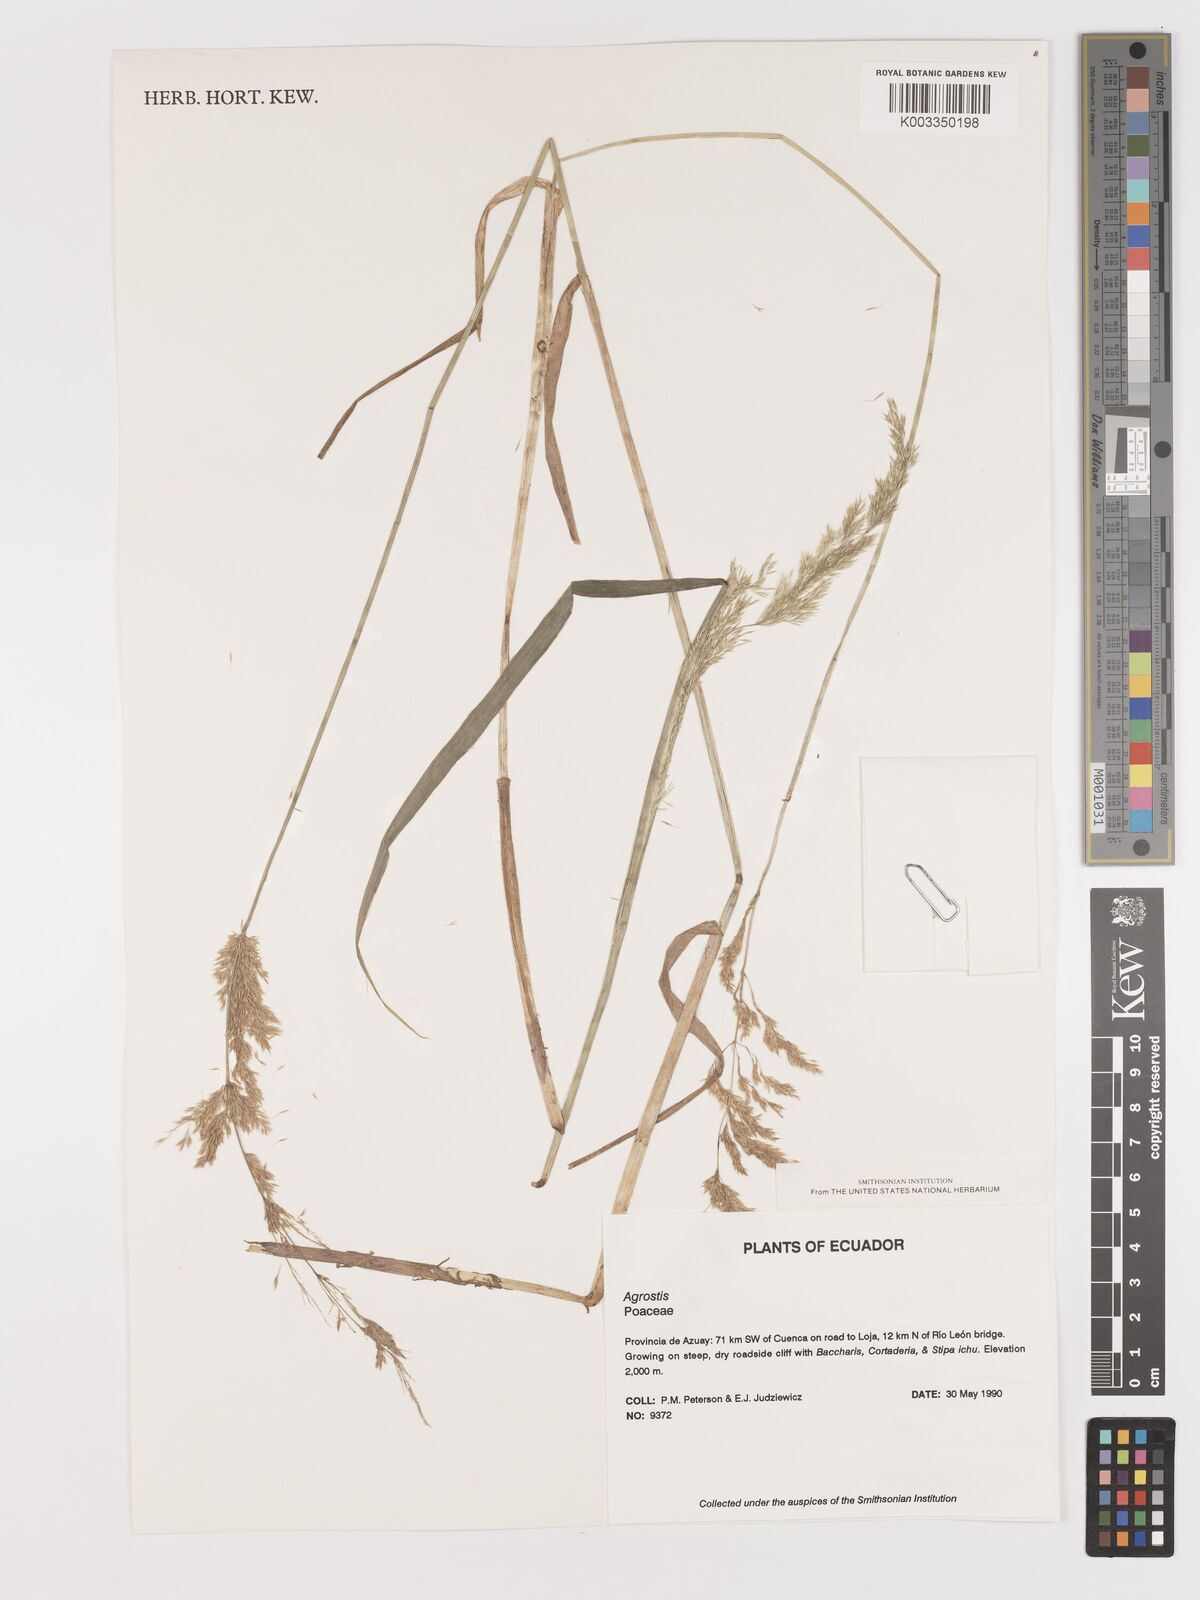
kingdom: Plantae
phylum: Tracheophyta
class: Liliopsida
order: Poales
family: Poaceae
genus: Agrostis
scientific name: Agrostis
